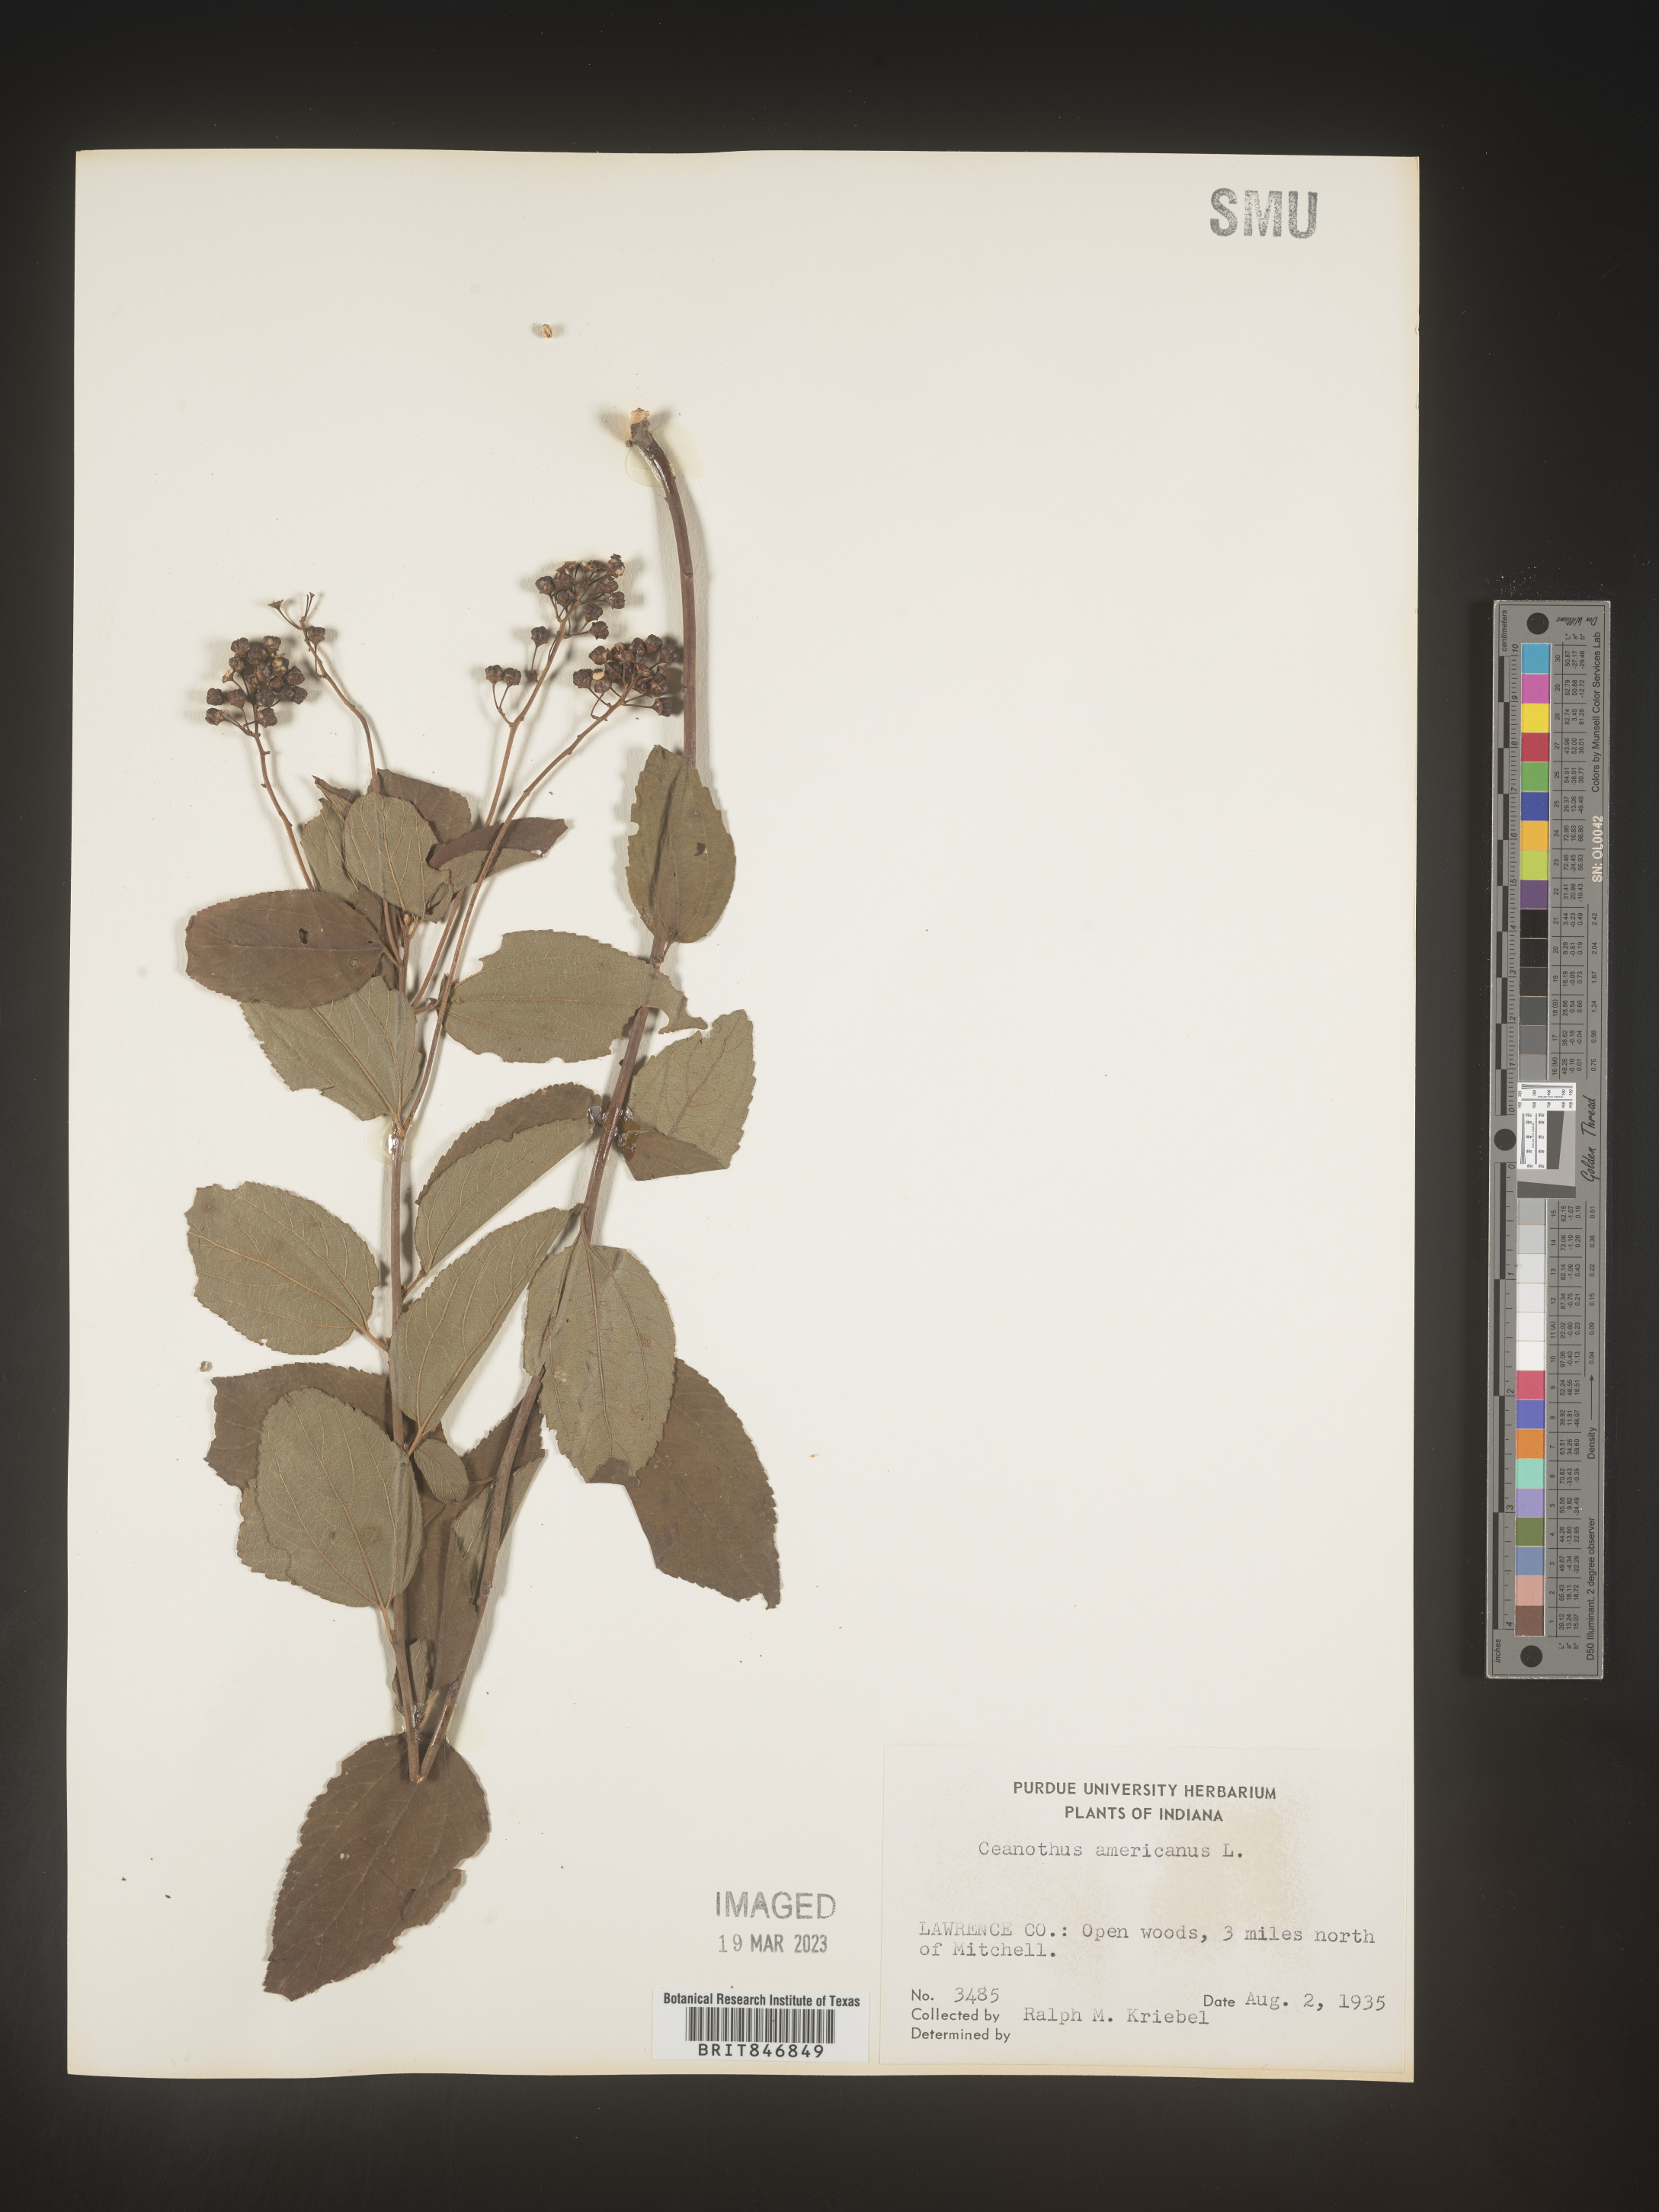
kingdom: Plantae
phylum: Tracheophyta
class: Magnoliopsida
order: Rosales
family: Rhamnaceae
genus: Ceanothus
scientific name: Ceanothus americanus
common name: Redroot
